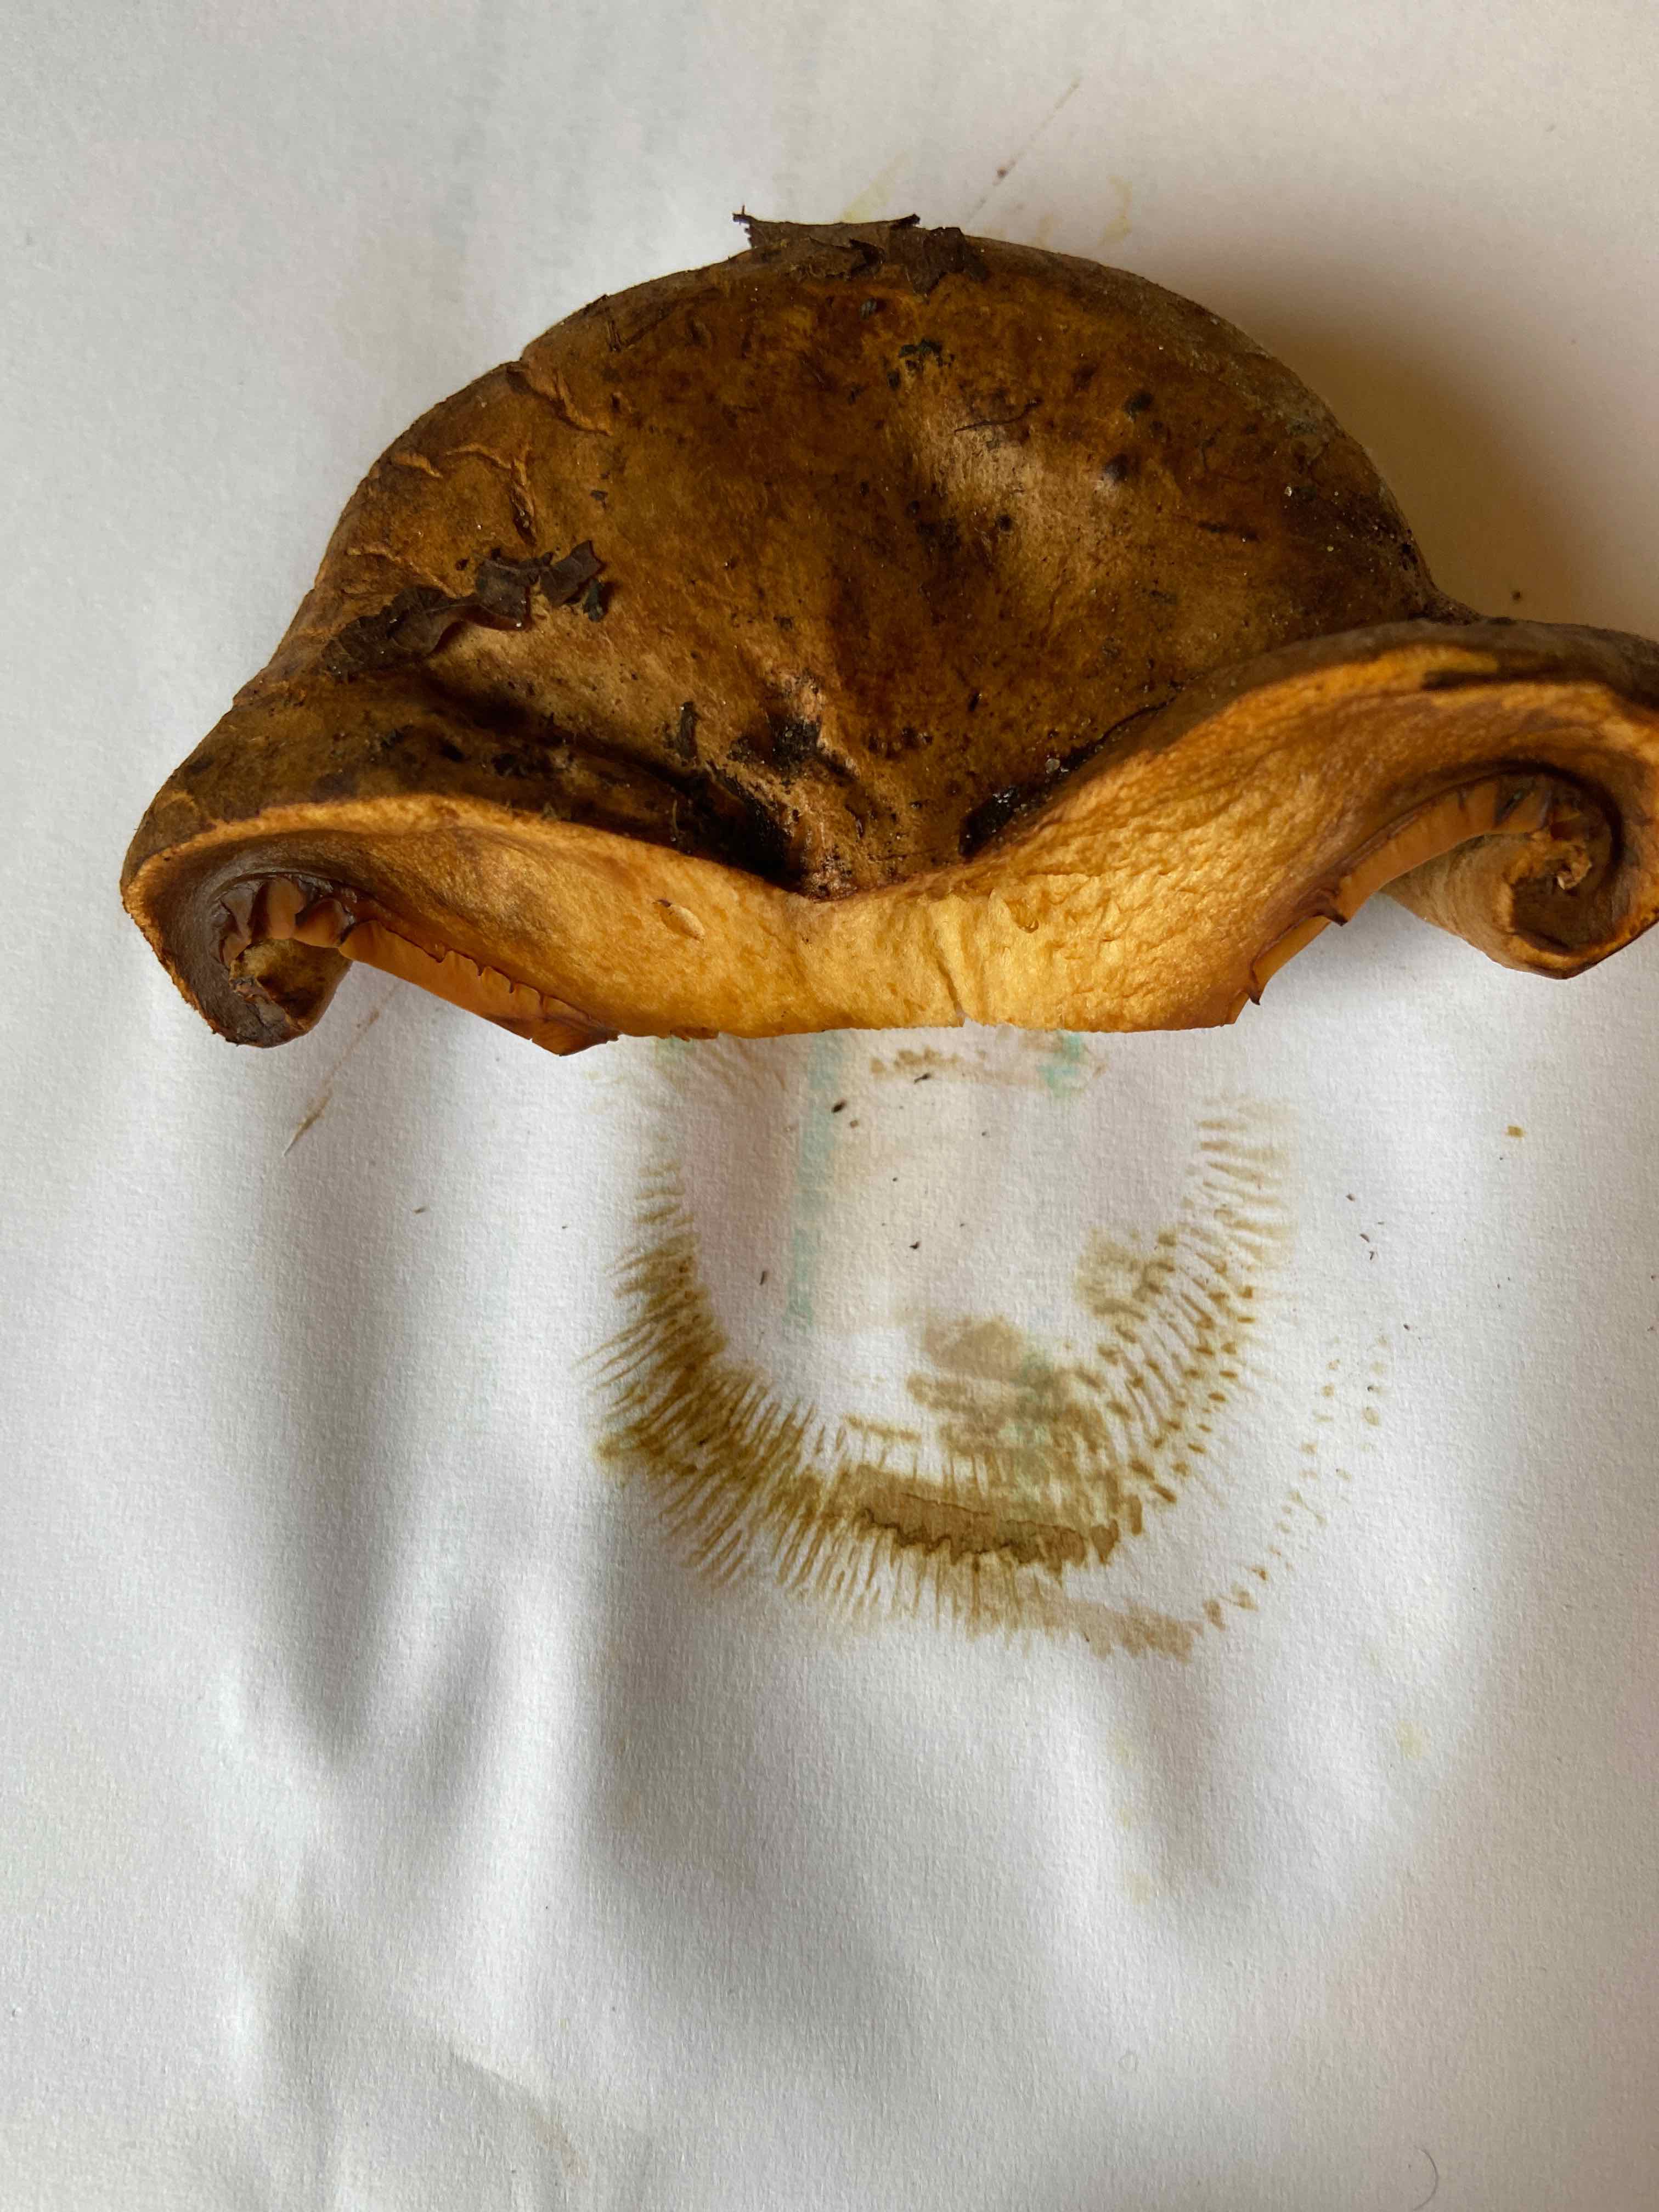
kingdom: Fungi
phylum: Basidiomycota
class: Agaricomycetes
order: Boletales
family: Paxillaceae
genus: Paxillus
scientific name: Paxillus ammoniavirescens
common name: olivensporet netbladhat
